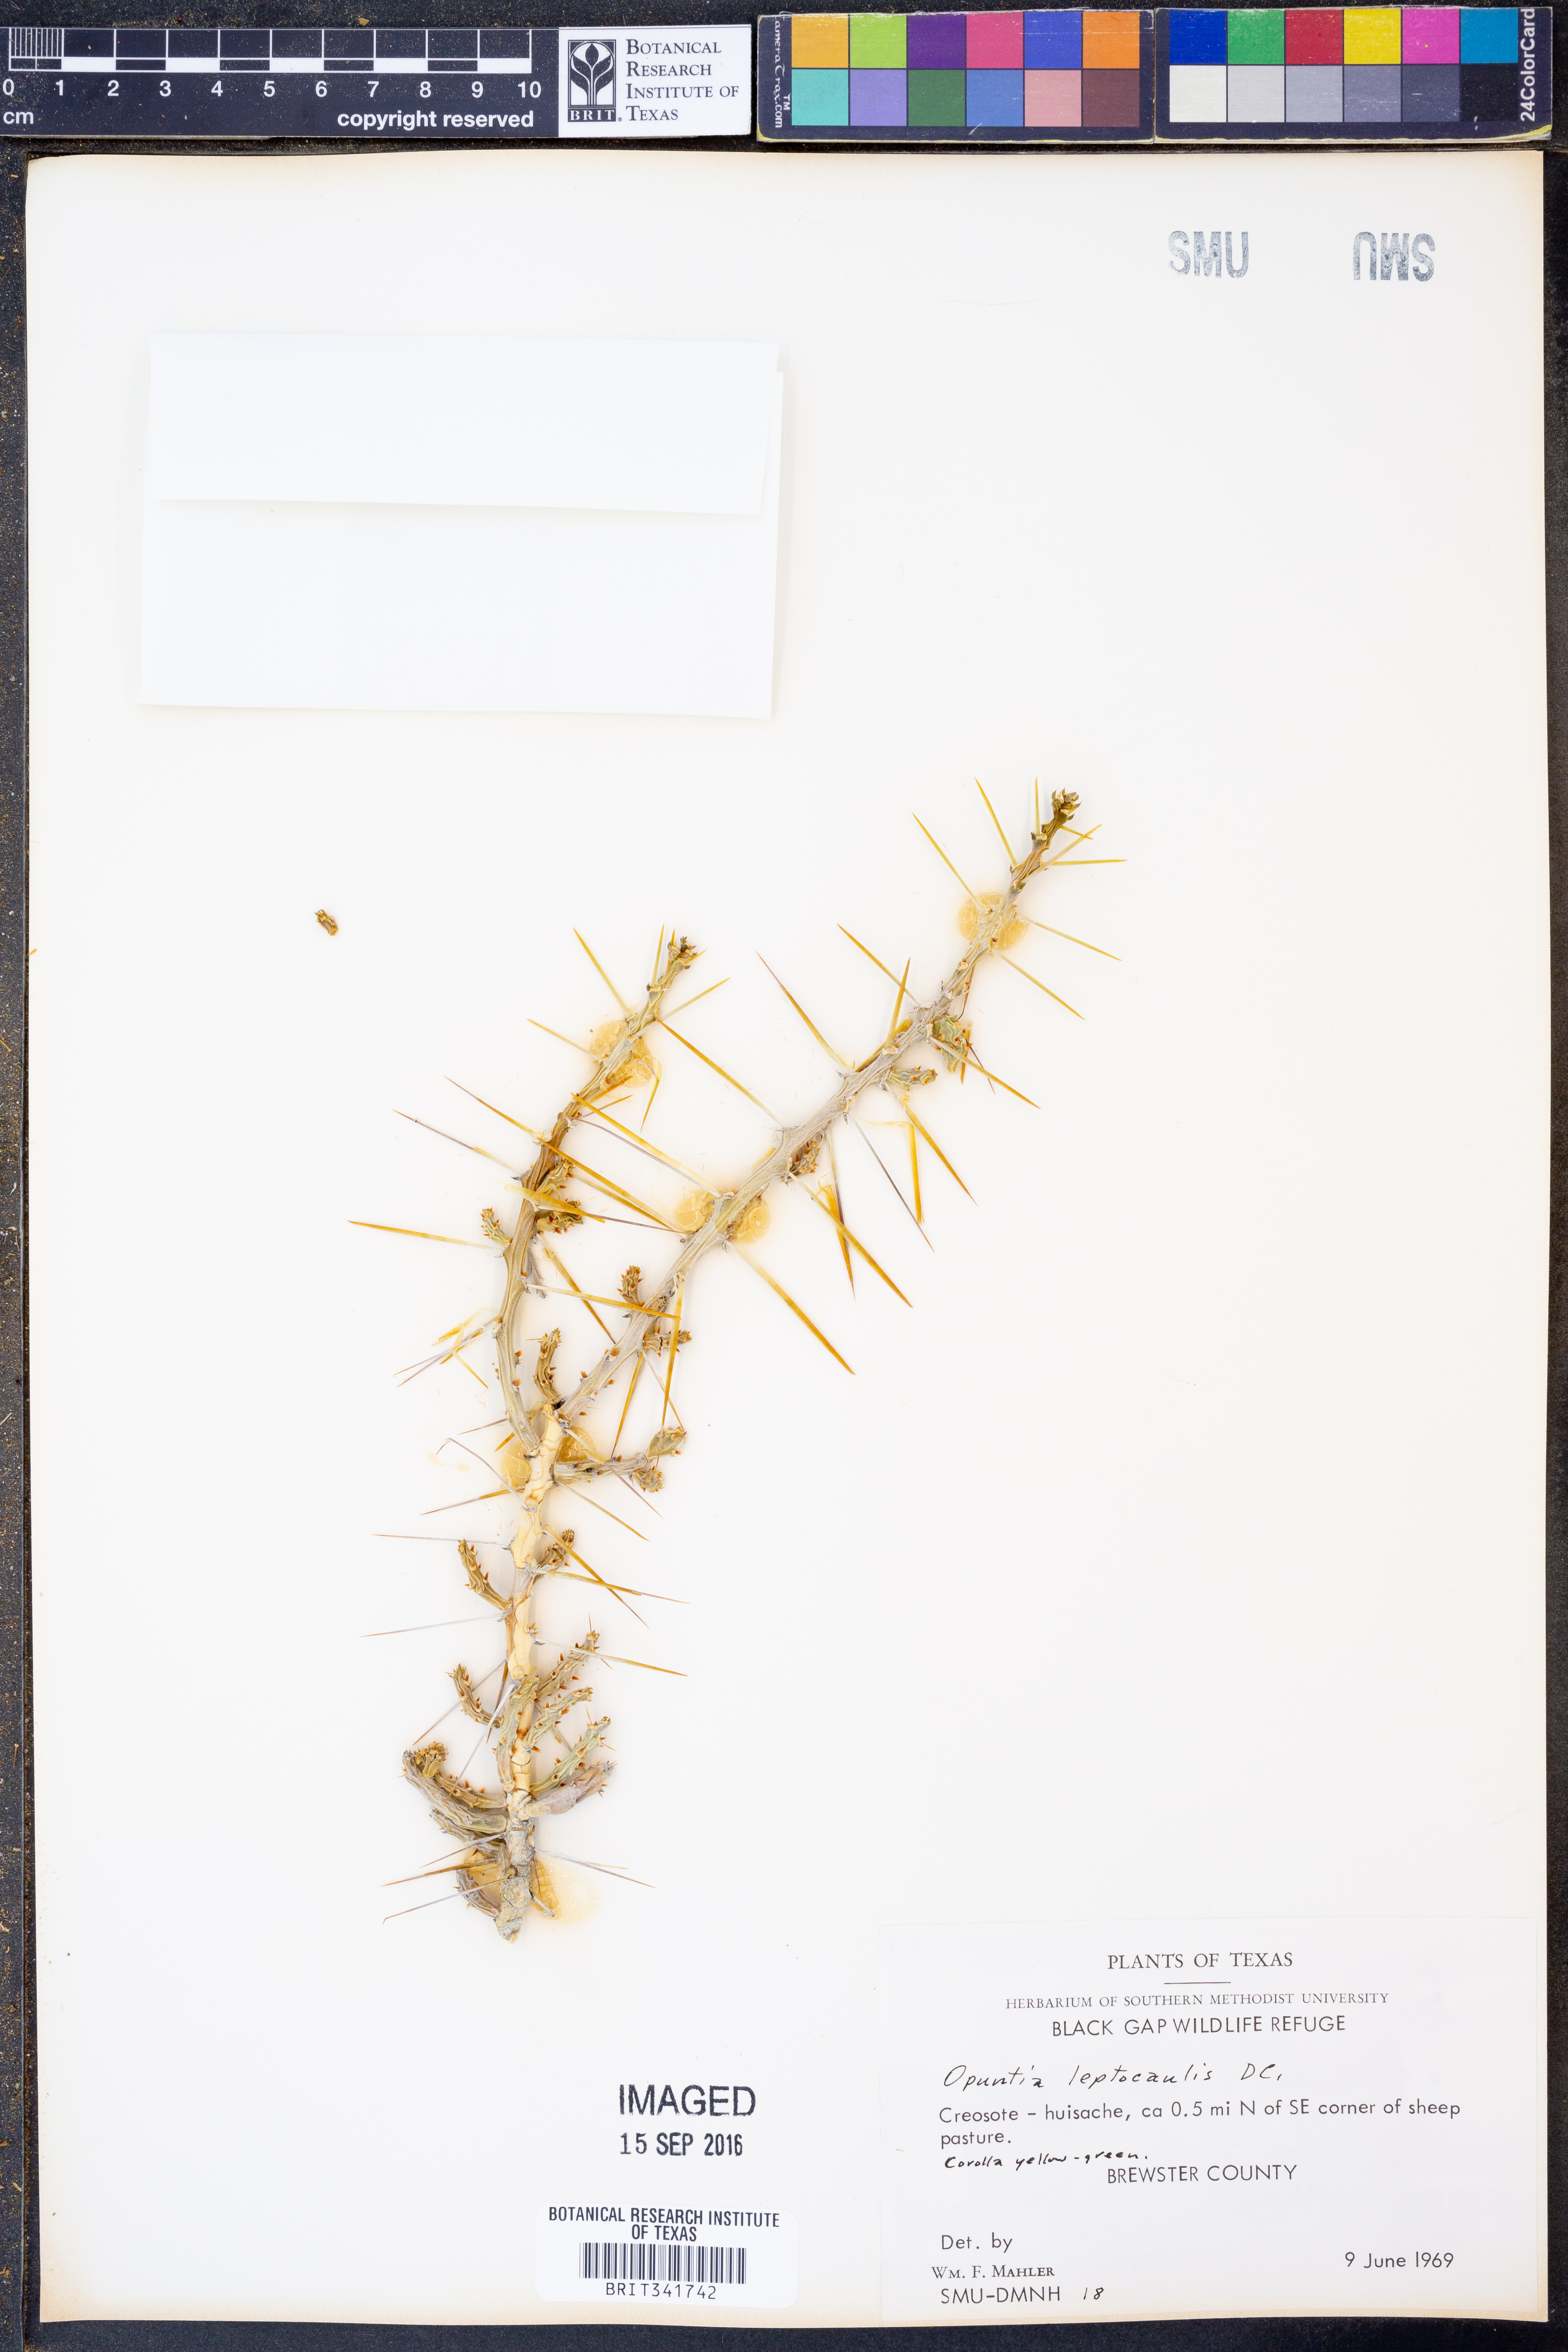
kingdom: Plantae
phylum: Tracheophyta
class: Magnoliopsida
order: Caryophyllales
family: Cactaceae
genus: Cylindropuntia
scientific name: Cylindropuntia leptocaulis
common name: Christmas cactus
